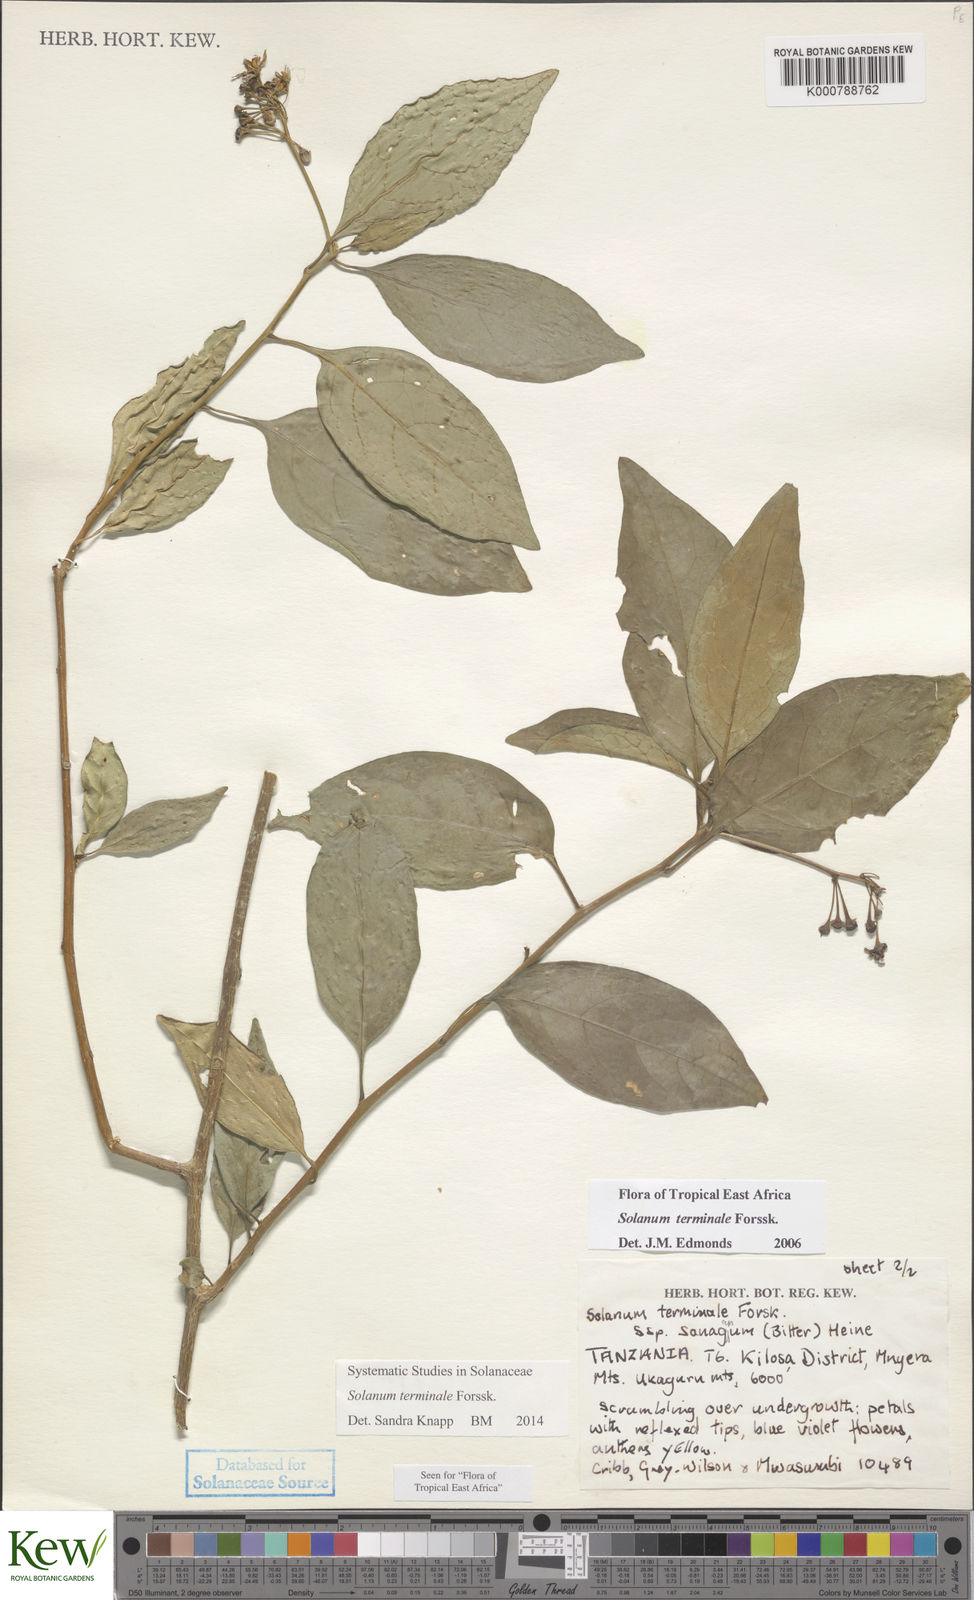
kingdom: Plantae
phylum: Tracheophyta
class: Magnoliopsida
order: Solanales
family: Solanaceae
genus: Solanum
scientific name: Solanum terminale
